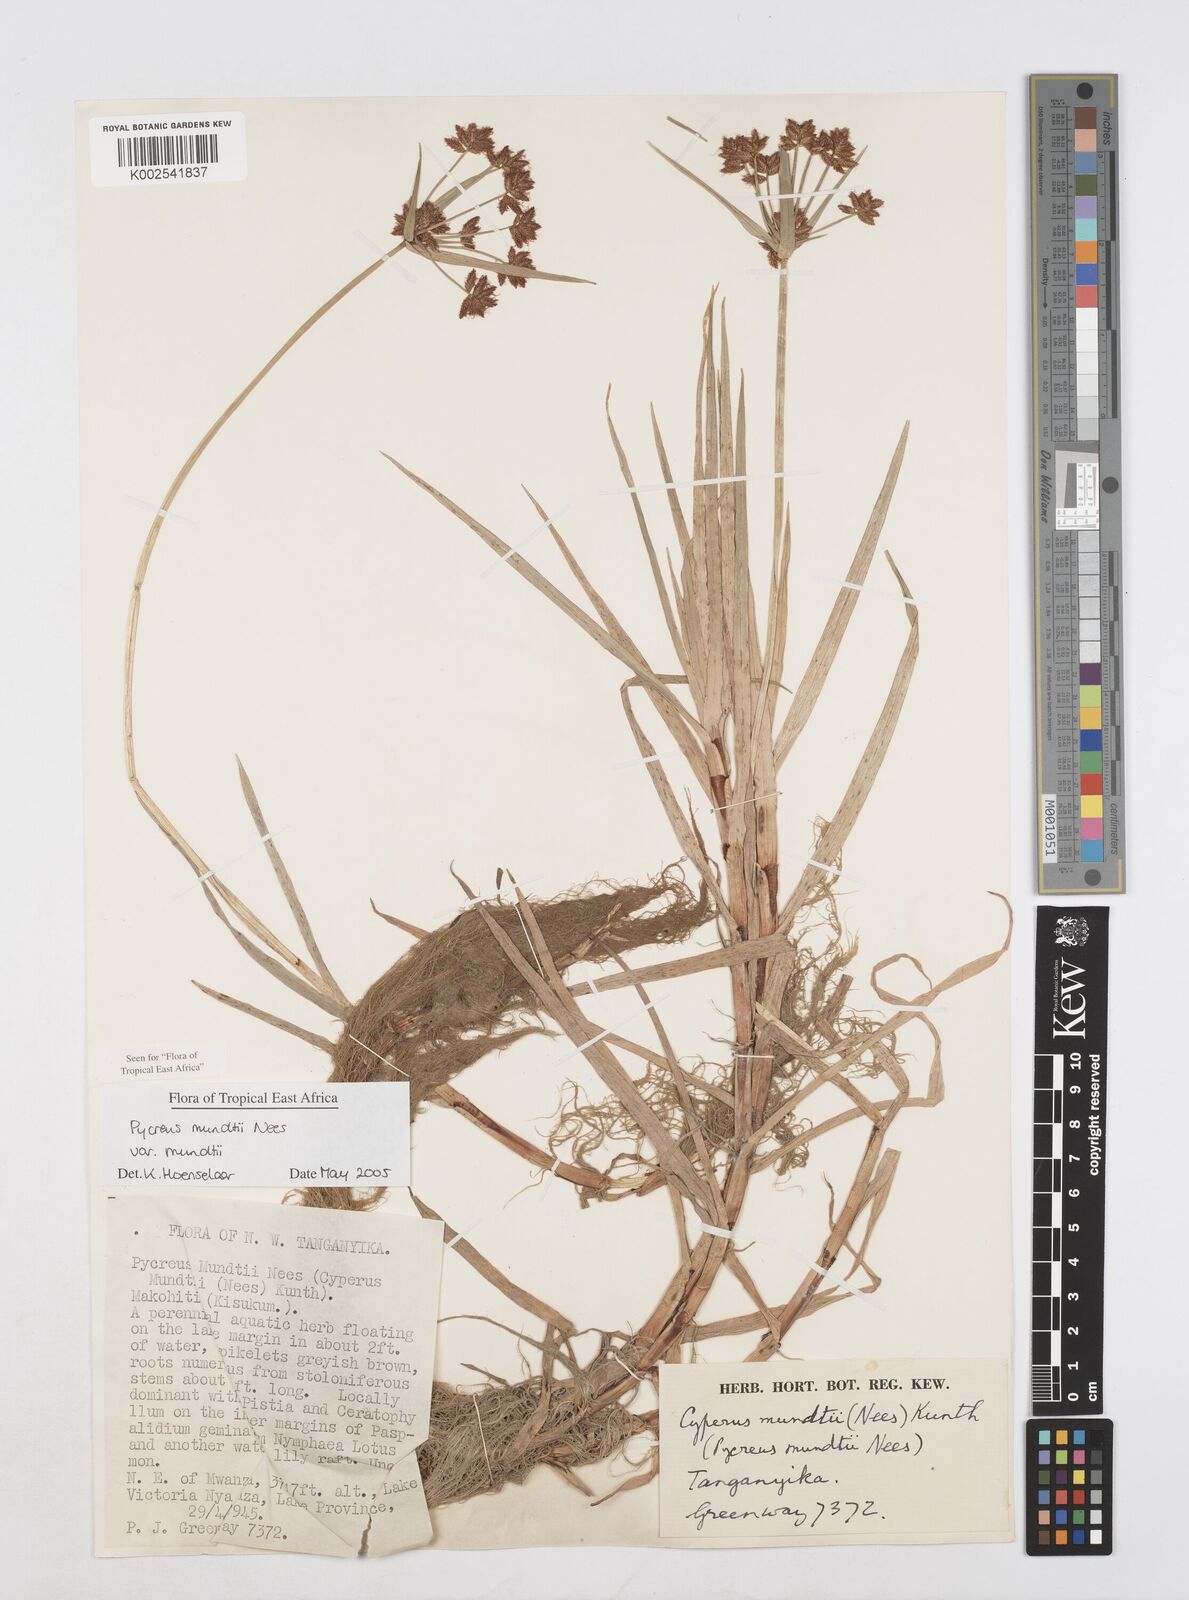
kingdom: Plantae
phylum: Tracheophyta
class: Liliopsida
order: Poales
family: Cyperaceae
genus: Cyperus
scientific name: Cyperus mundii
